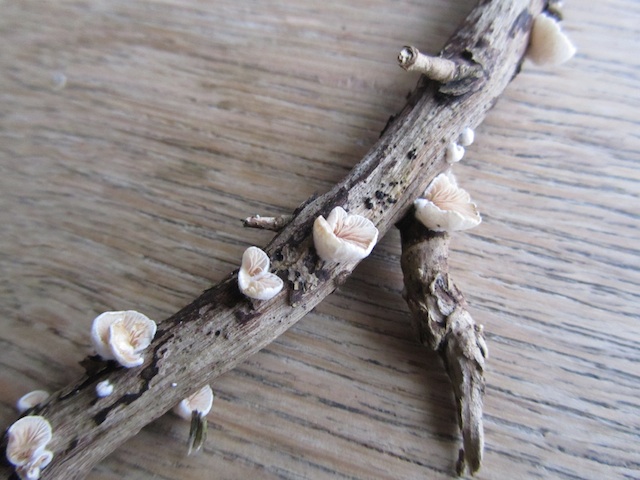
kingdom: Fungi
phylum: Basidiomycota
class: Agaricomycetes
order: Agaricales
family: Crepidotaceae
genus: Crepidotus
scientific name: Crepidotus cesatii
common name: almindelig muslingesvamp
